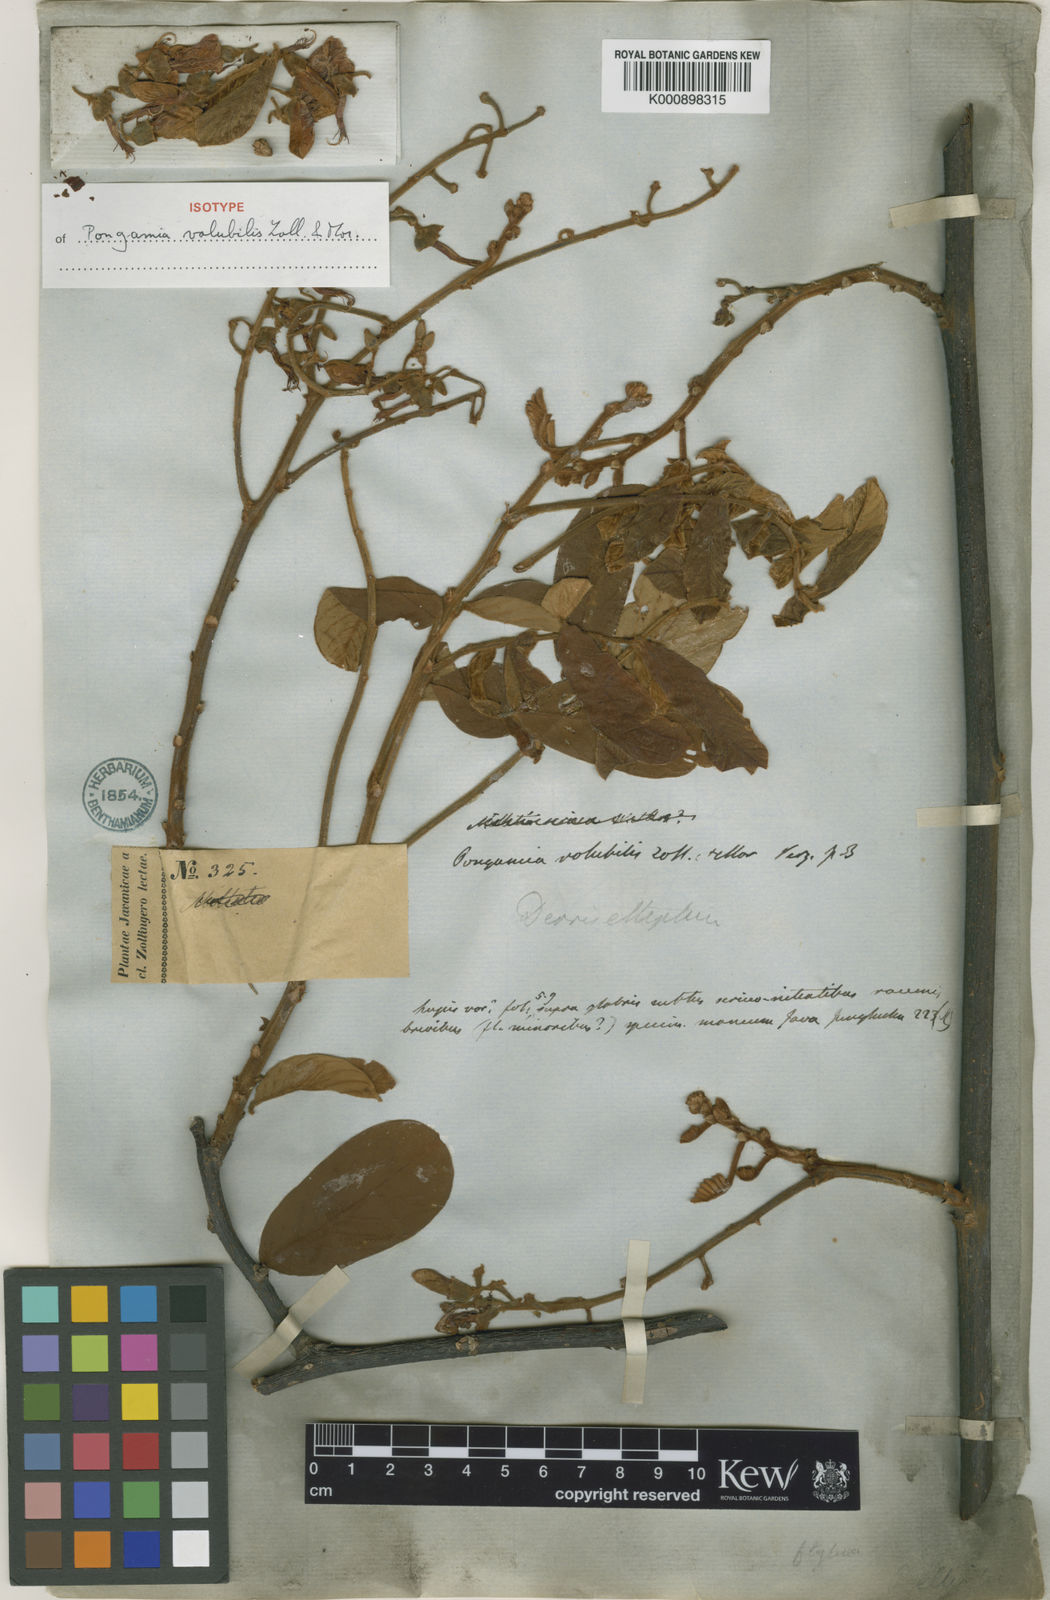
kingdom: Plantae
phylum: Tracheophyta
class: Magnoliopsida
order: Fabales
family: Fabaceae
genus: Derris
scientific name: Derris elliptica
